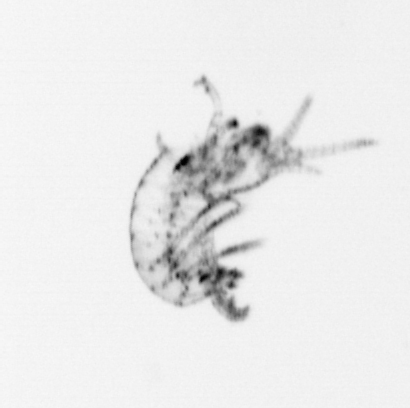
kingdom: Animalia
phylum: Arthropoda
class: Maxillopoda
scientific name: Maxillopoda
